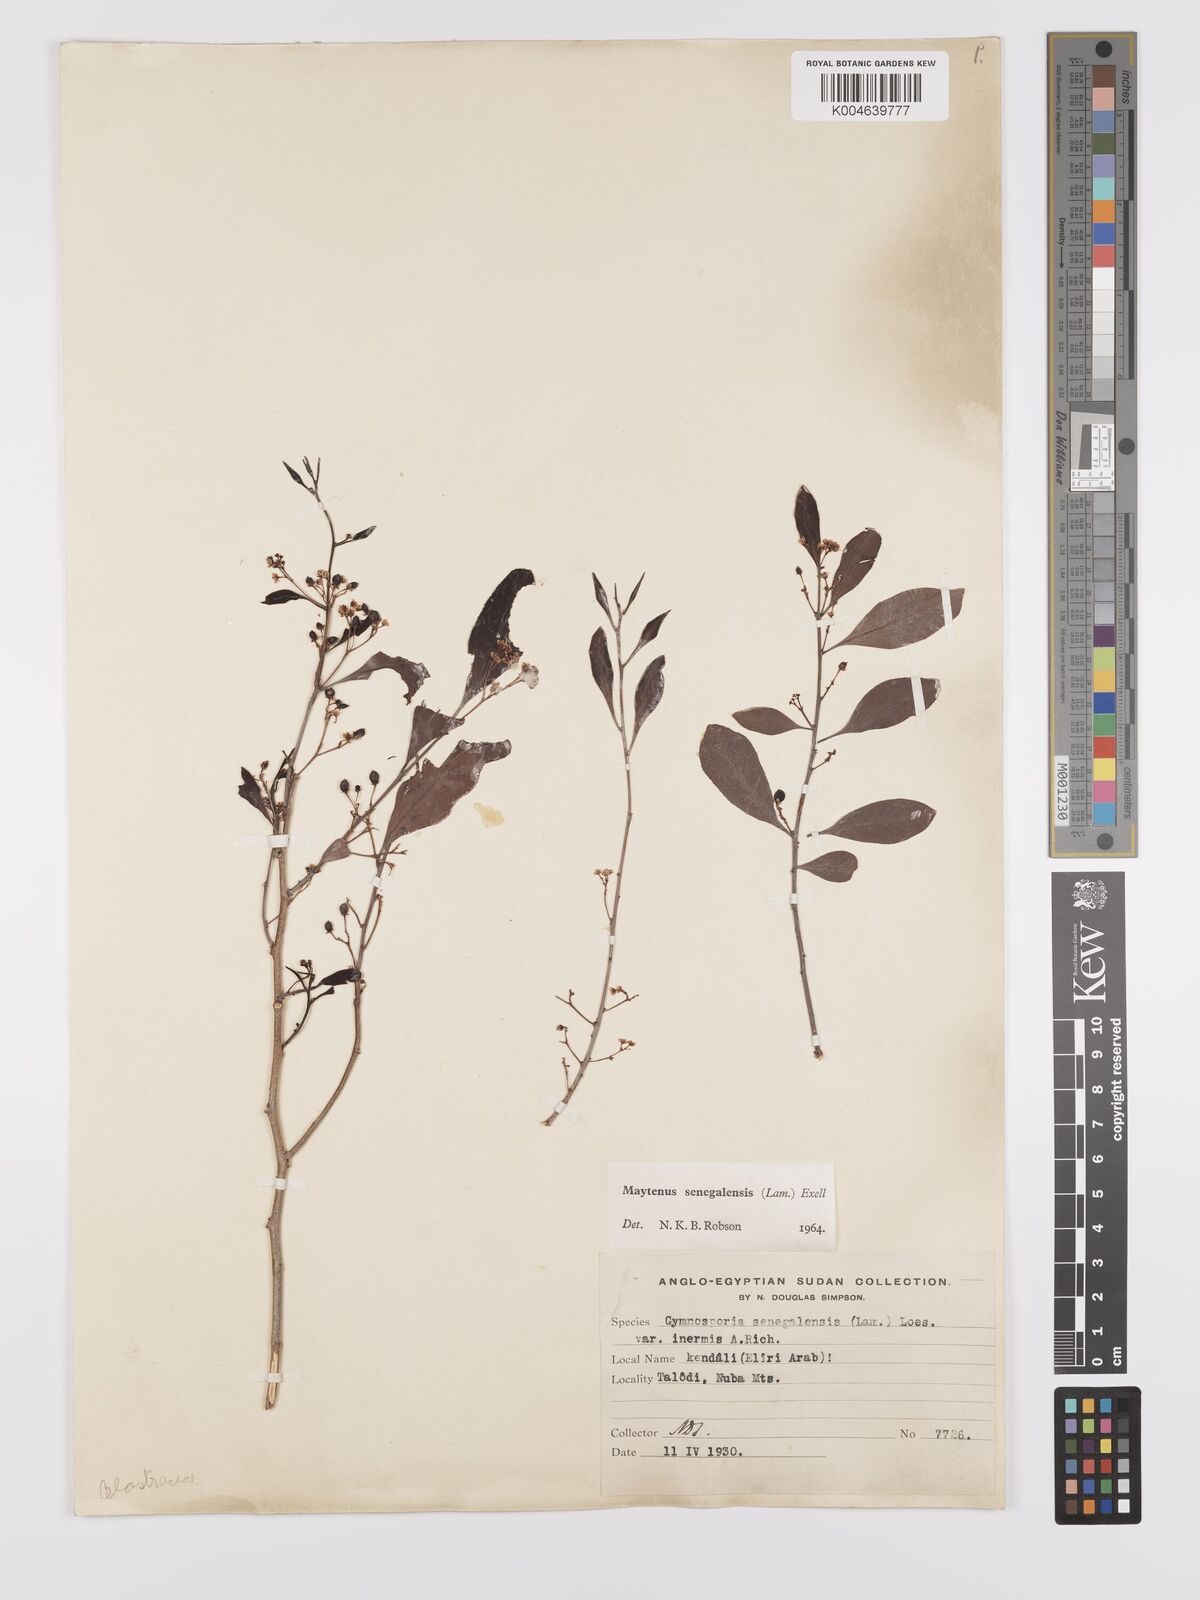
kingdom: Plantae
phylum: Tracheophyta
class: Magnoliopsida
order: Celastrales
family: Celastraceae
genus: Gymnosporia
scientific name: Gymnosporia senegalensis
